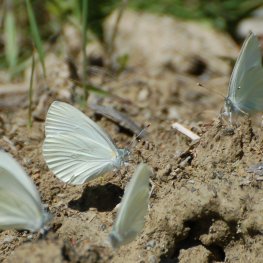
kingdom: Animalia
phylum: Arthropoda
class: Insecta
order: Lepidoptera
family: Pieridae
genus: Pieris
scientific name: Pieris oleracea
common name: Mustard White
